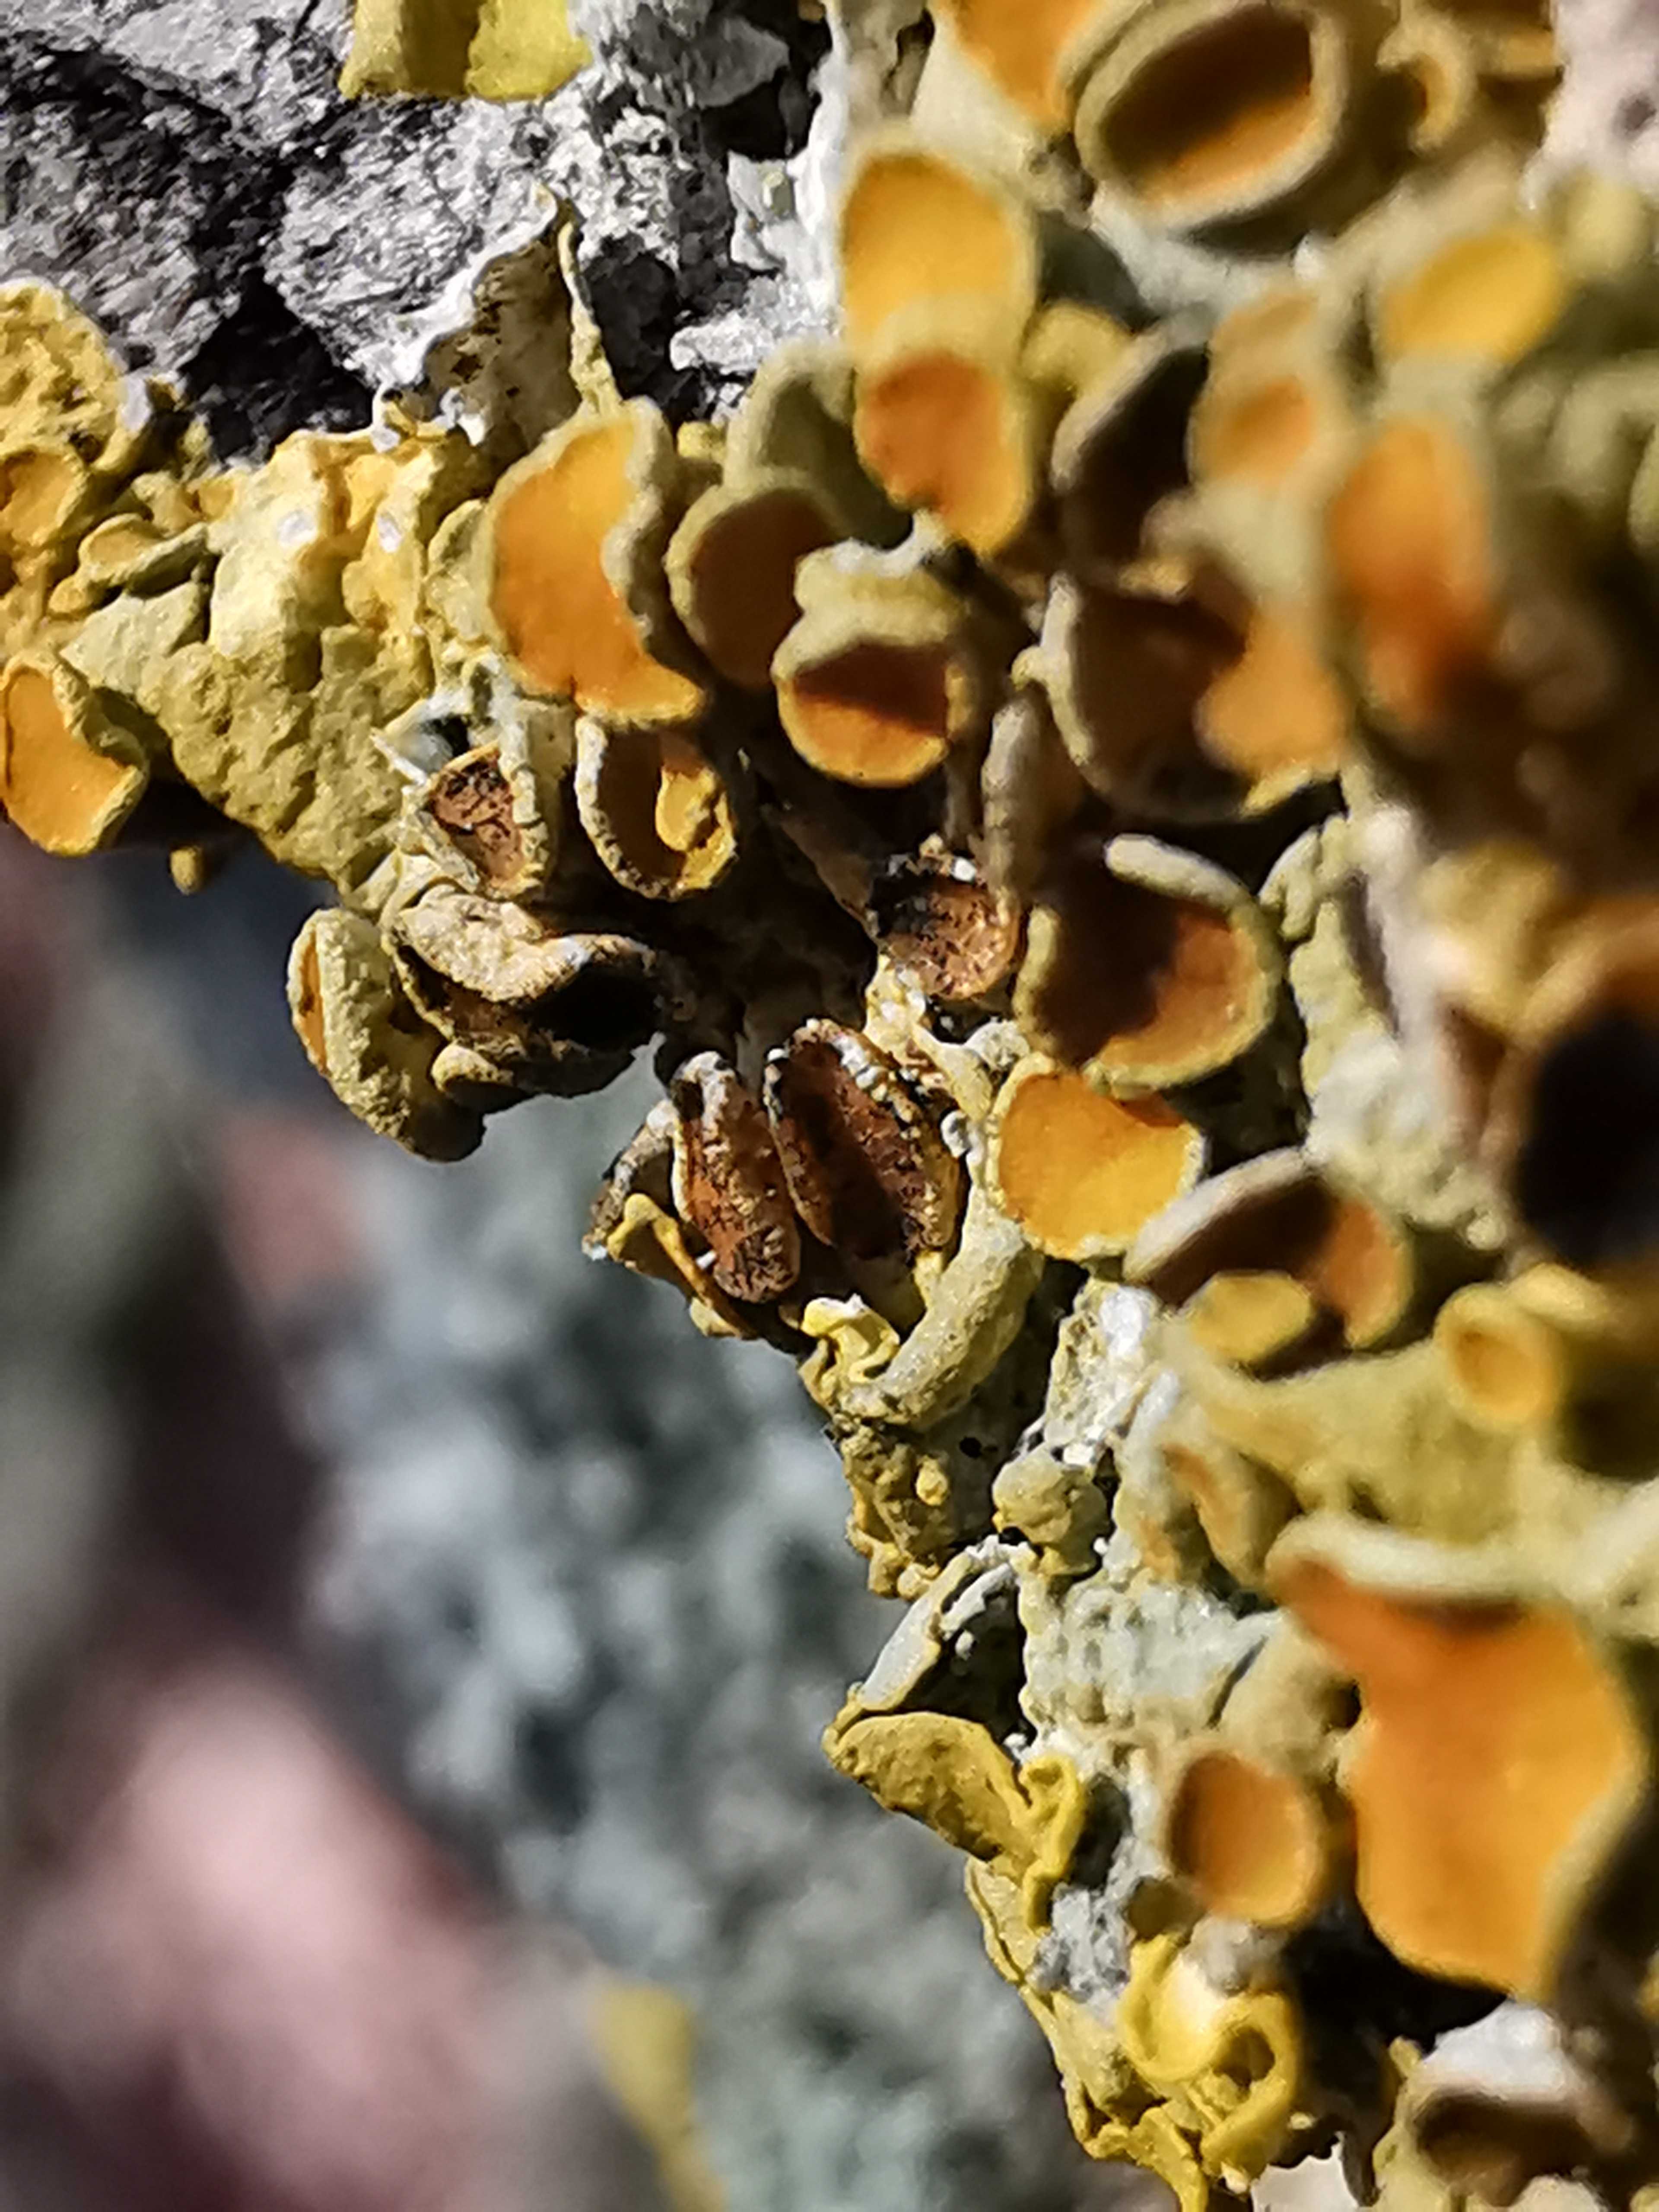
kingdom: Fungi
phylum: Ascomycota
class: Dothideomycetes
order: Mycosphaerellales
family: Teratosphaeriaceae
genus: Xanthoriicola
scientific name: Xanthoriicola physciae
